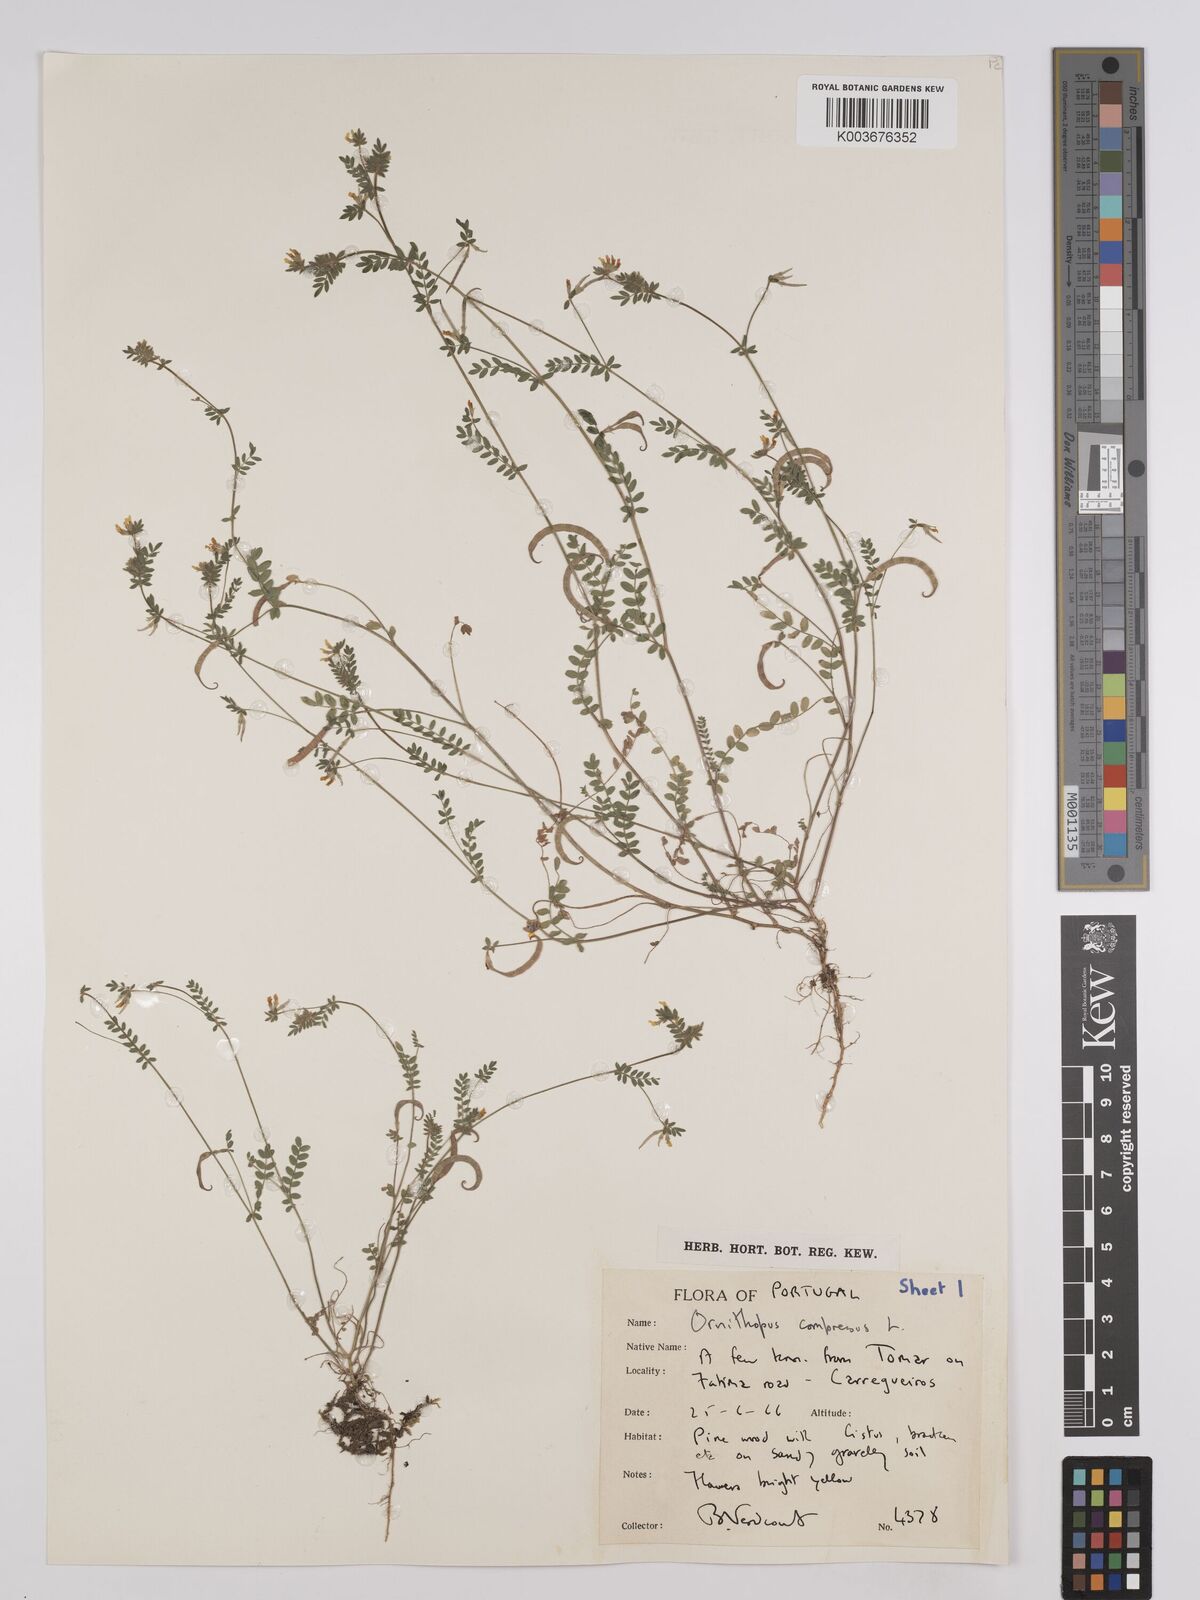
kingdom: Plantae
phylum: Tracheophyta
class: Magnoliopsida
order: Fabales
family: Fabaceae
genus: Ornithopus
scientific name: Ornithopus compressus
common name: Yellow serradella
